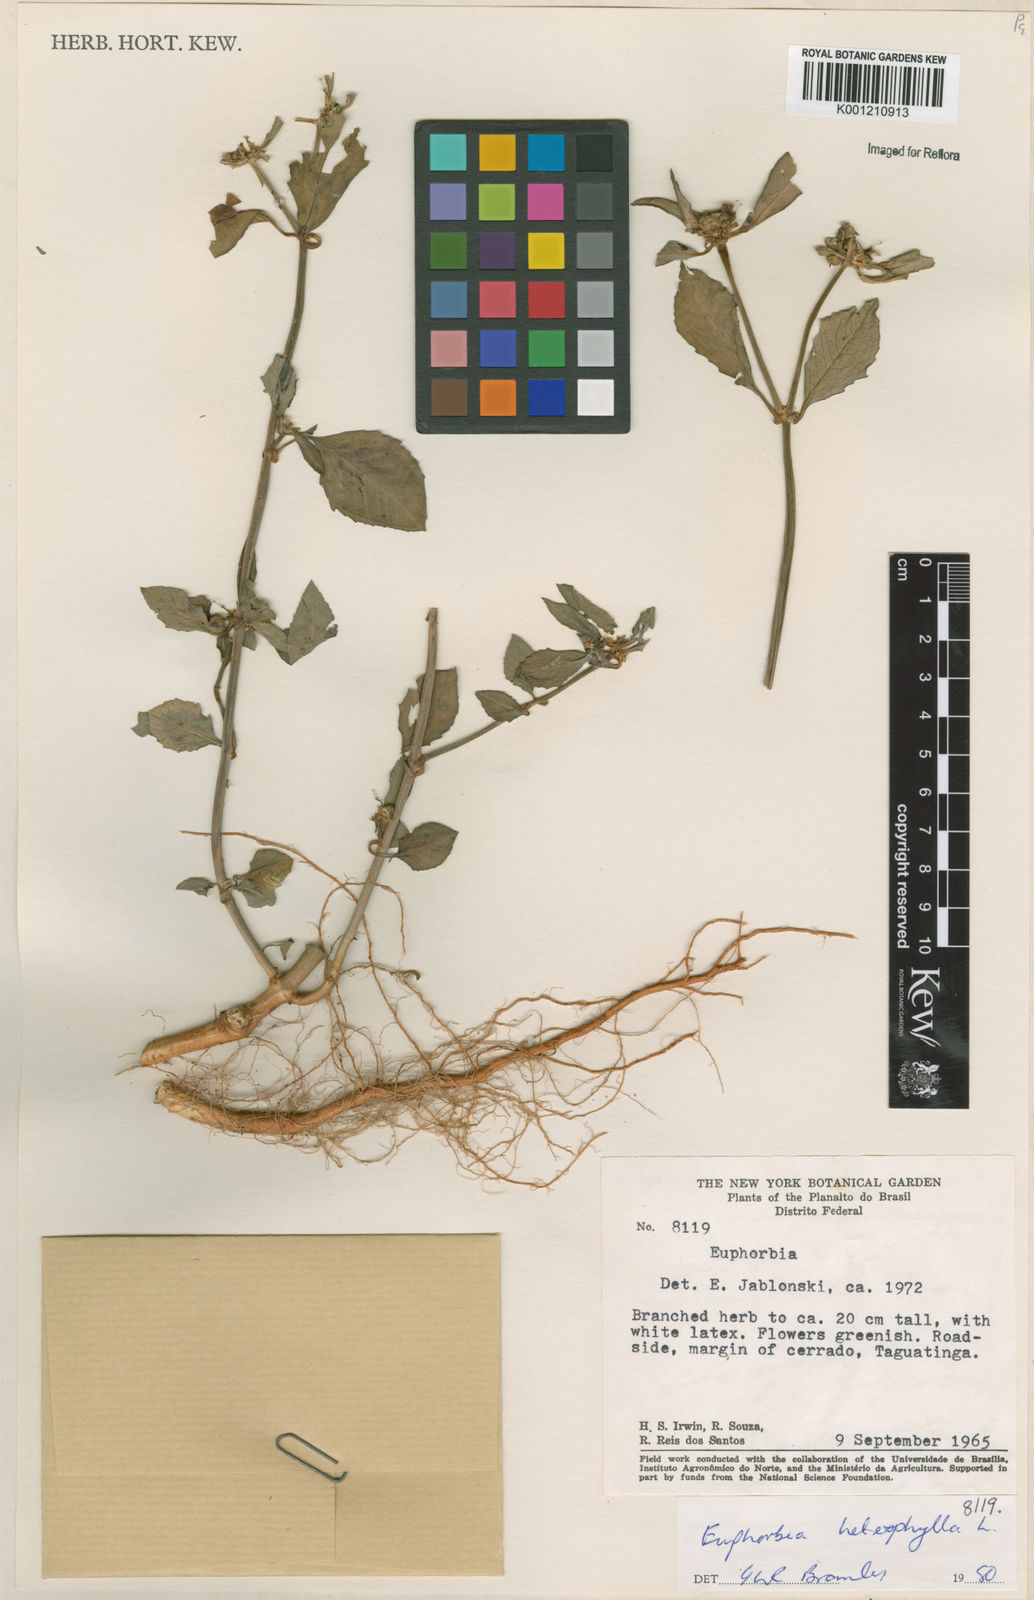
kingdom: Plantae
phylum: Tracheophyta
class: Magnoliopsida
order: Malpighiales
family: Euphorbiaceae
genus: Euphorbia
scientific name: Euphorbia heterophylla
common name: Mexican fireplant
